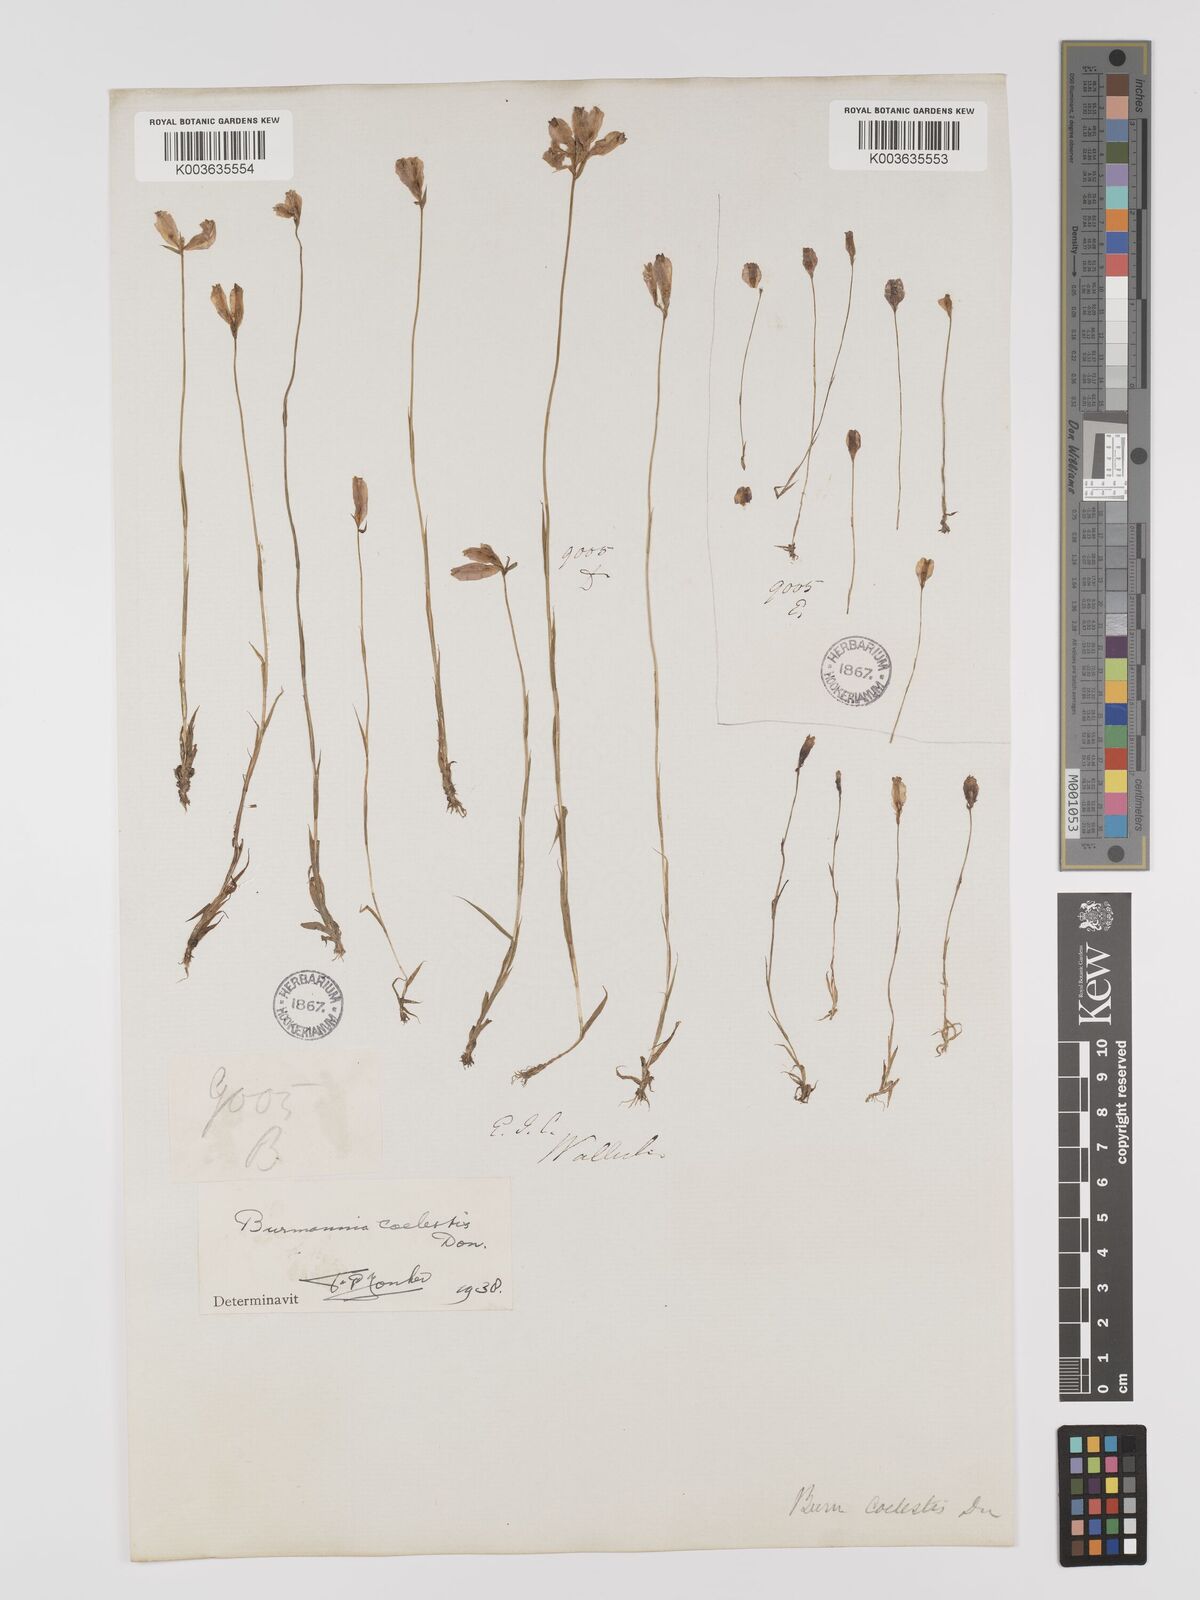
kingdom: Plantae
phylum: Tracheophyta
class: Liliopsida
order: Dioscoreales
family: Burmanniaceae
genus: Burmannia
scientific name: Burmannia coelestis
